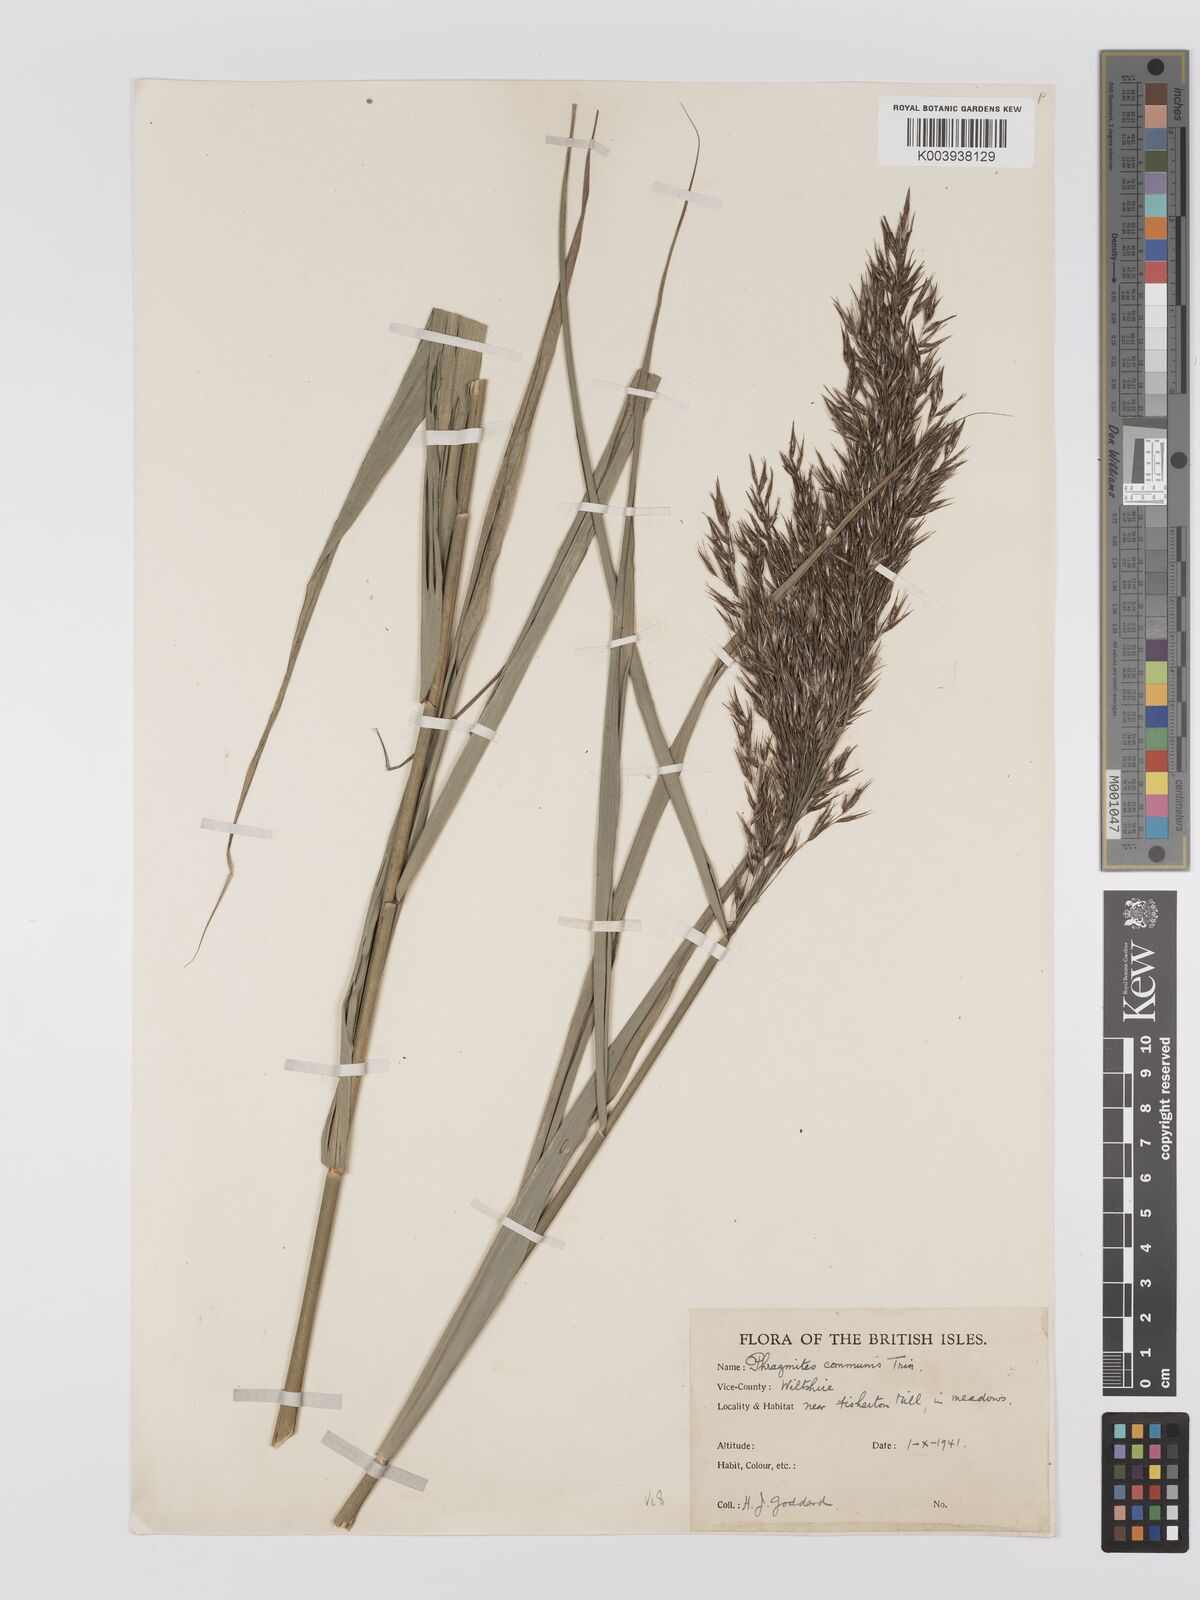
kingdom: Plantae
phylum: Tracheophyta
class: Liliopsida
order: Poales
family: Poaceae
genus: Phragmites
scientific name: Phragmites australis
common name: Common reed
